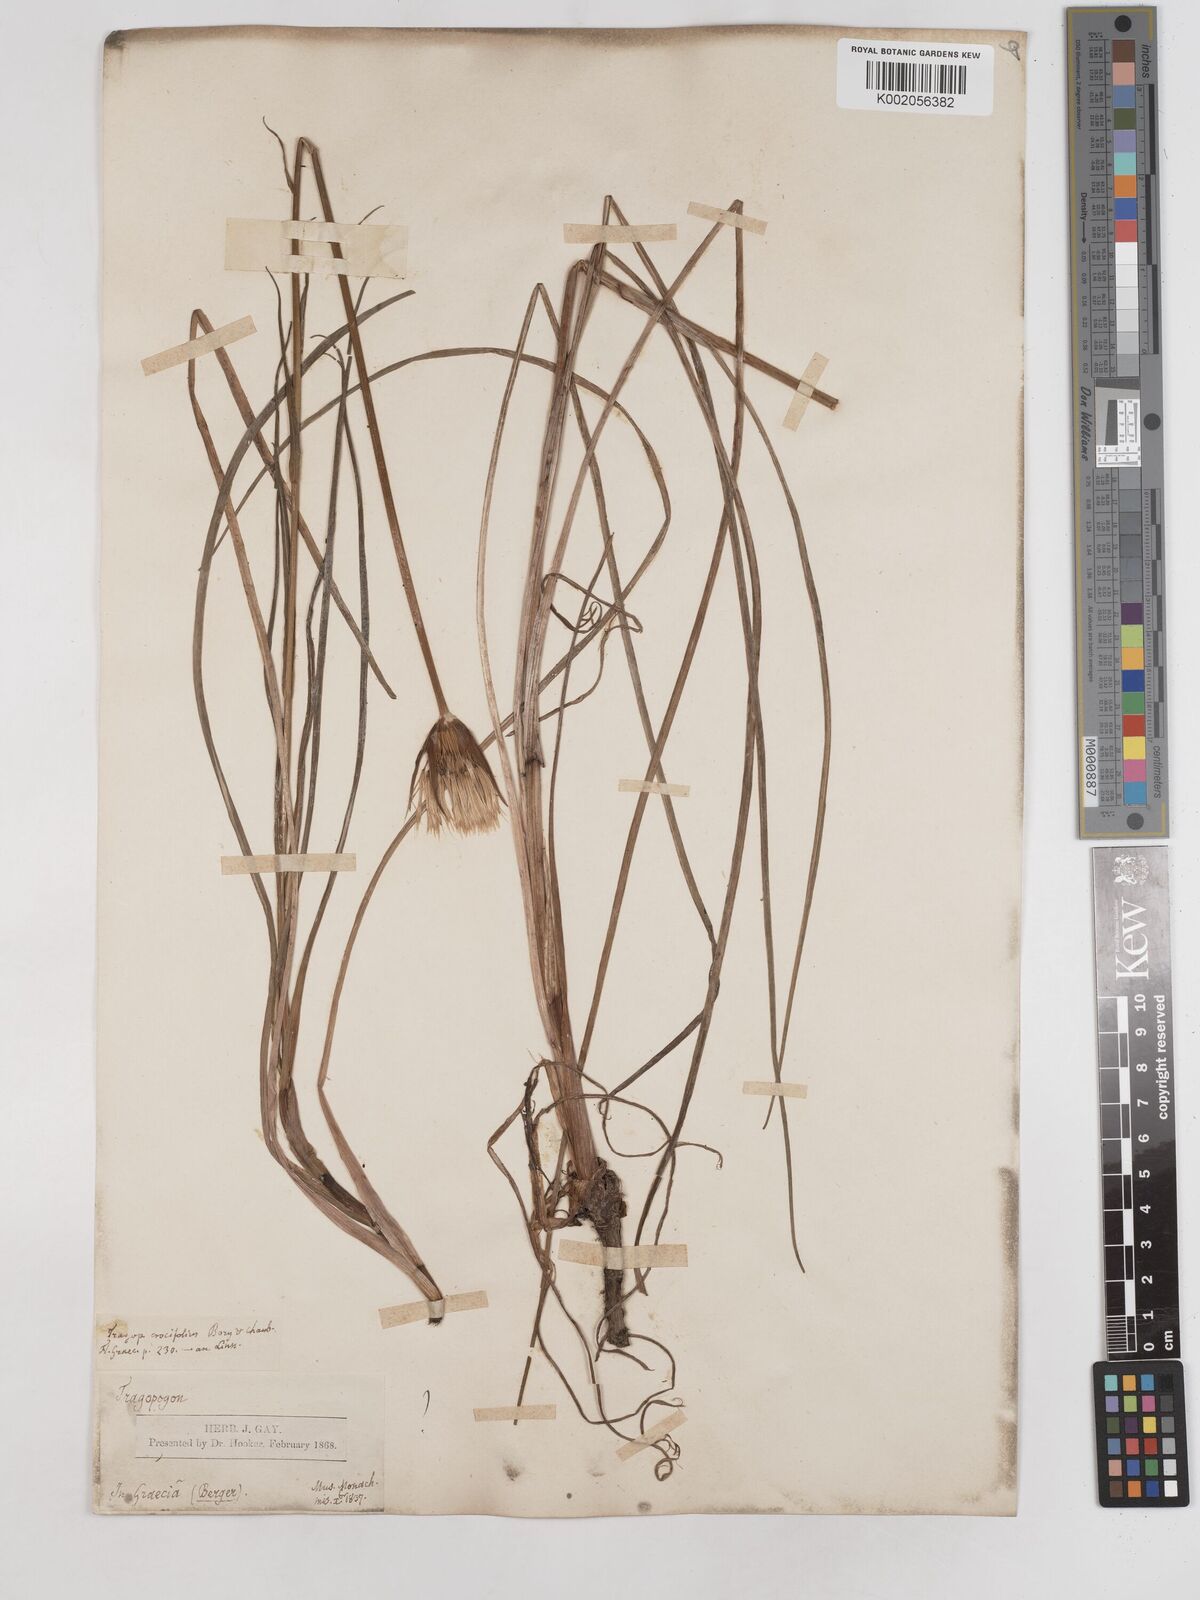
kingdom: Plantae
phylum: Tracheophyta
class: Magnoliopsida
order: Asterales
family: Asteraceae
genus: Tragopogon
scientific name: Tragopogon longifolius
